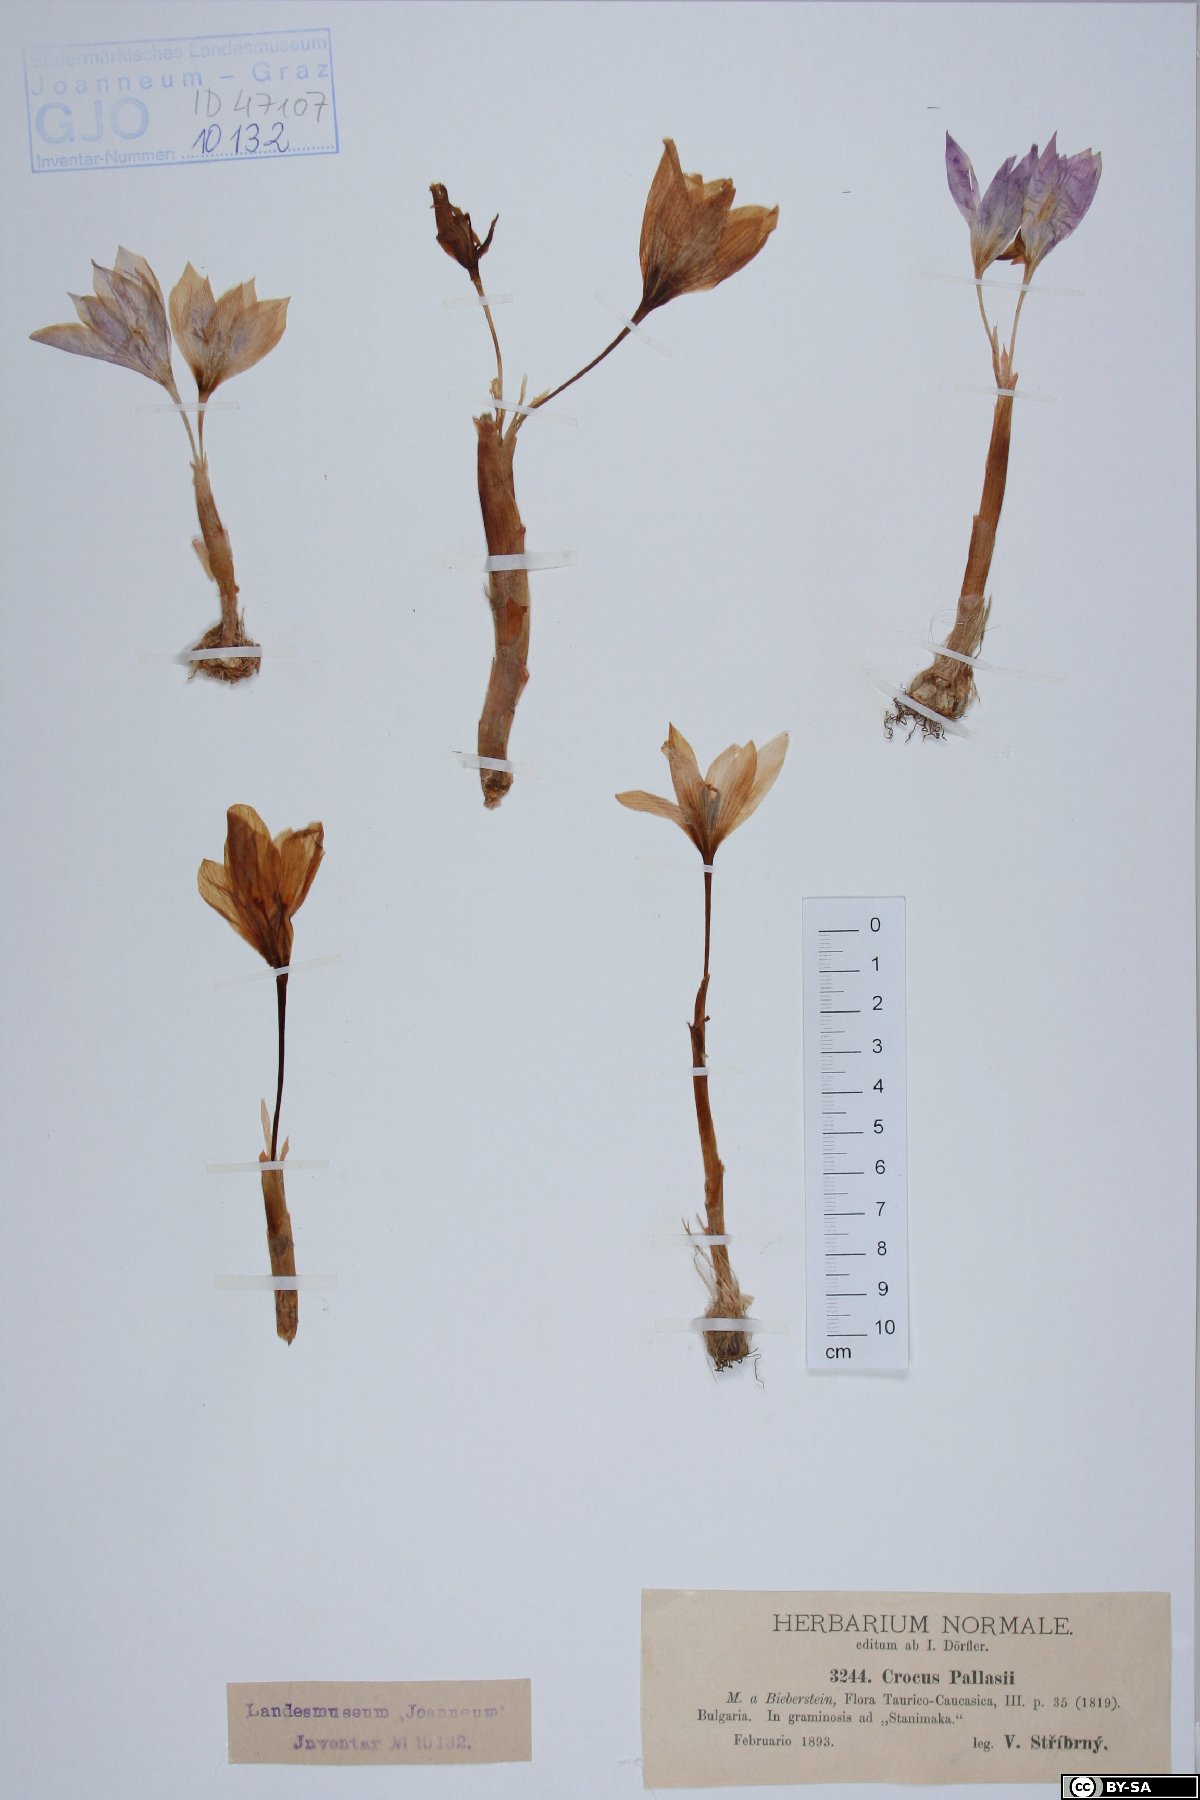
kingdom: Plantae
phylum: Tracheophyta
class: Liliopsida
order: Asparagales
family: Iridaceae
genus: Crocus
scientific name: Crocus pallasii
